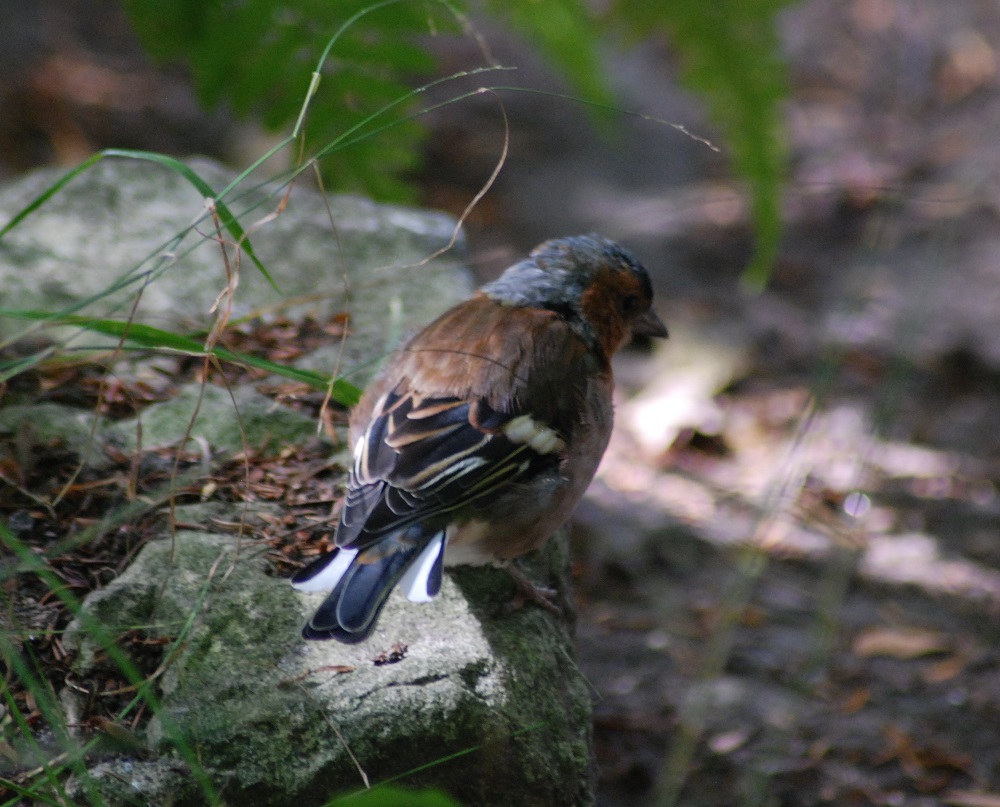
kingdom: Animalia
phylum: Chordata
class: Aves
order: Passeriformes
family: Fringillidae
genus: Fringilla
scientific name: Fringilla coelebs
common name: Common chaffinch
